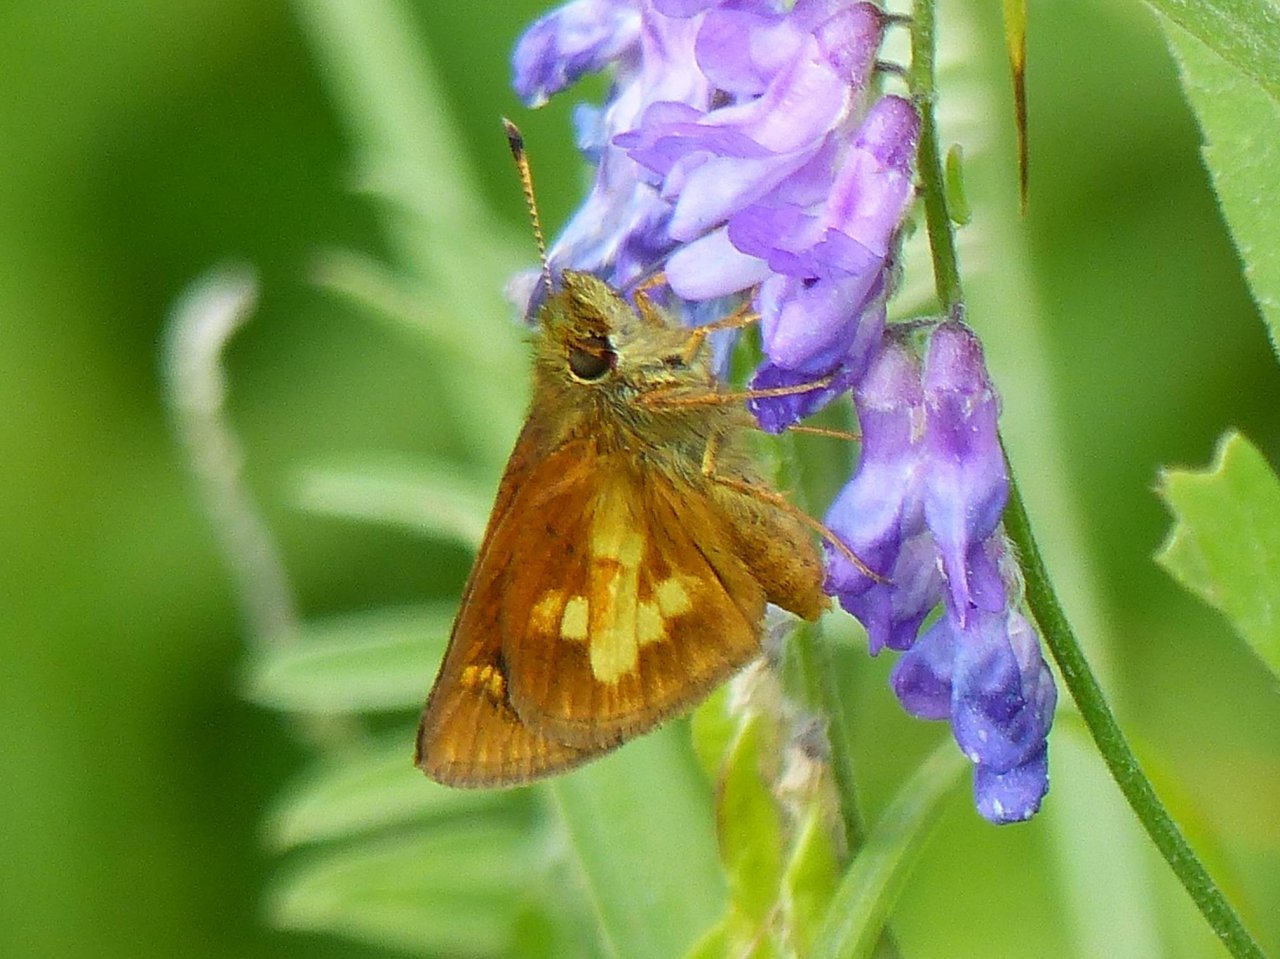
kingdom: Animalia
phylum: Arthropoda
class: Insecta
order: Lepidoptera
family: Hesperiidae
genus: Poanes
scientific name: Poanes massasoit
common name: Mulberry Wing
